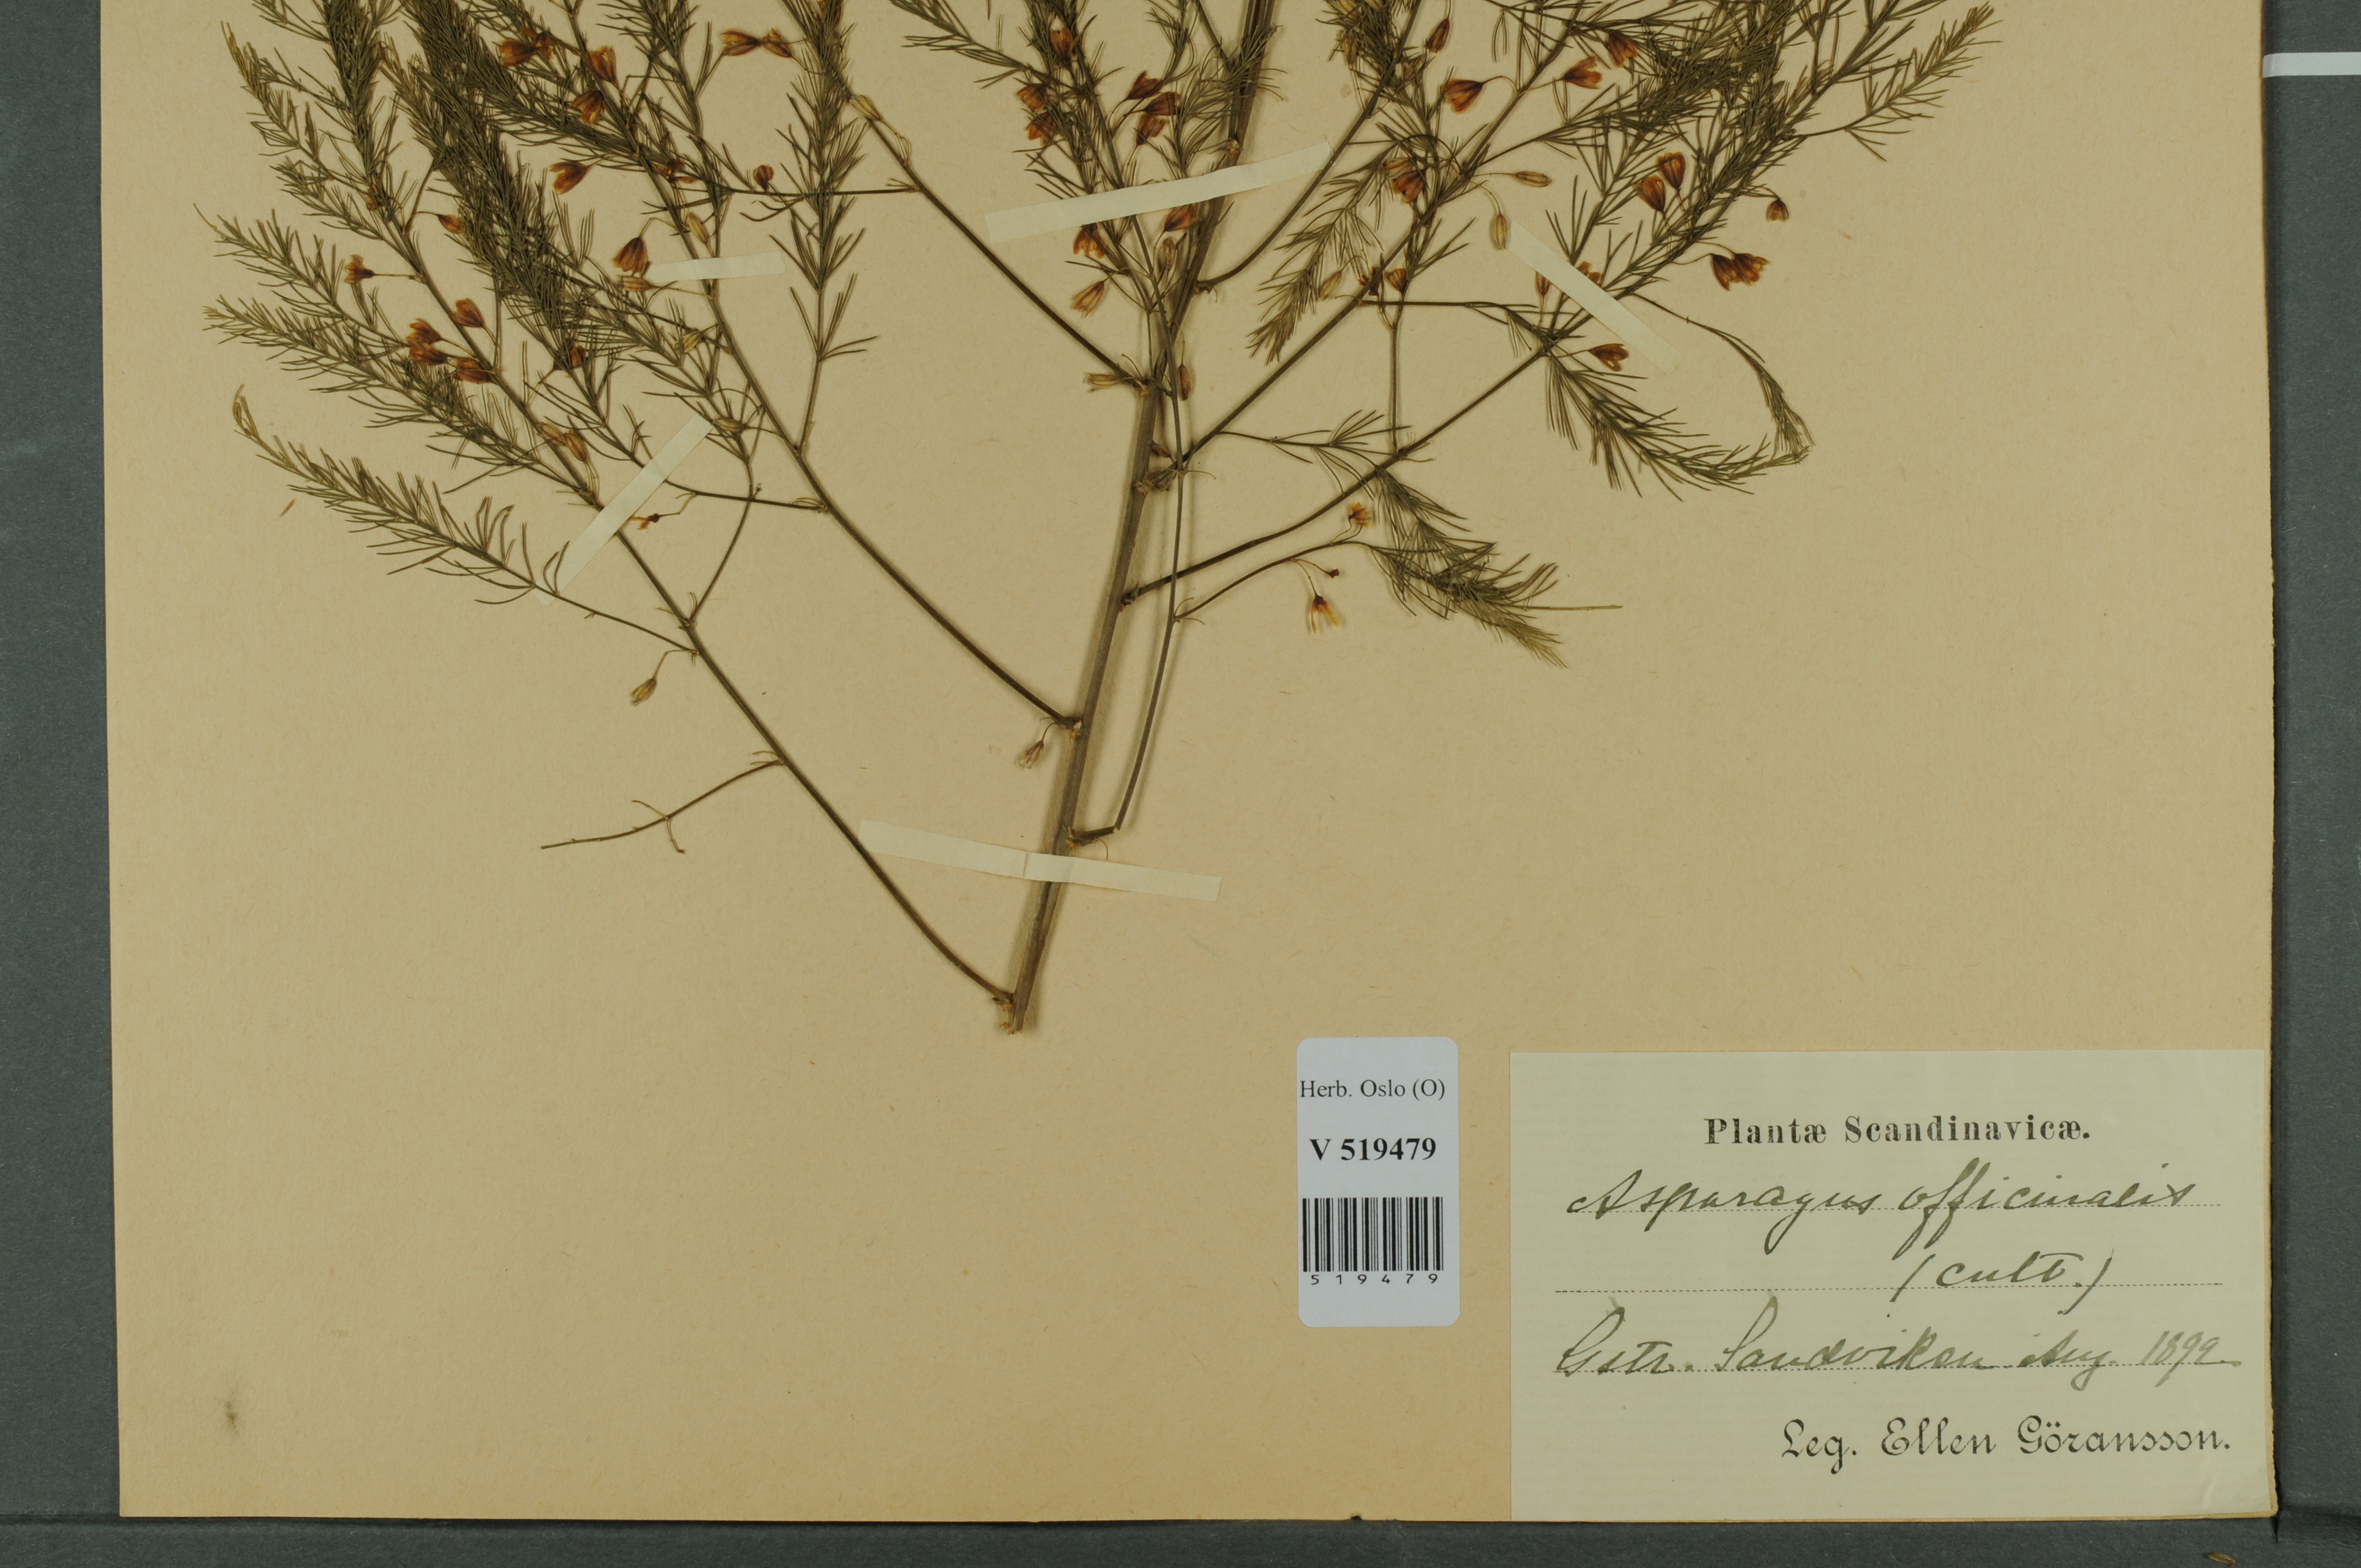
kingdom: Plantae
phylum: Tracheophyta
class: Liliopsida
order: Asparagales
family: Asparagaceae
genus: Asparagus
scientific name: Asparagus officinalis
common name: Garden asparagus
